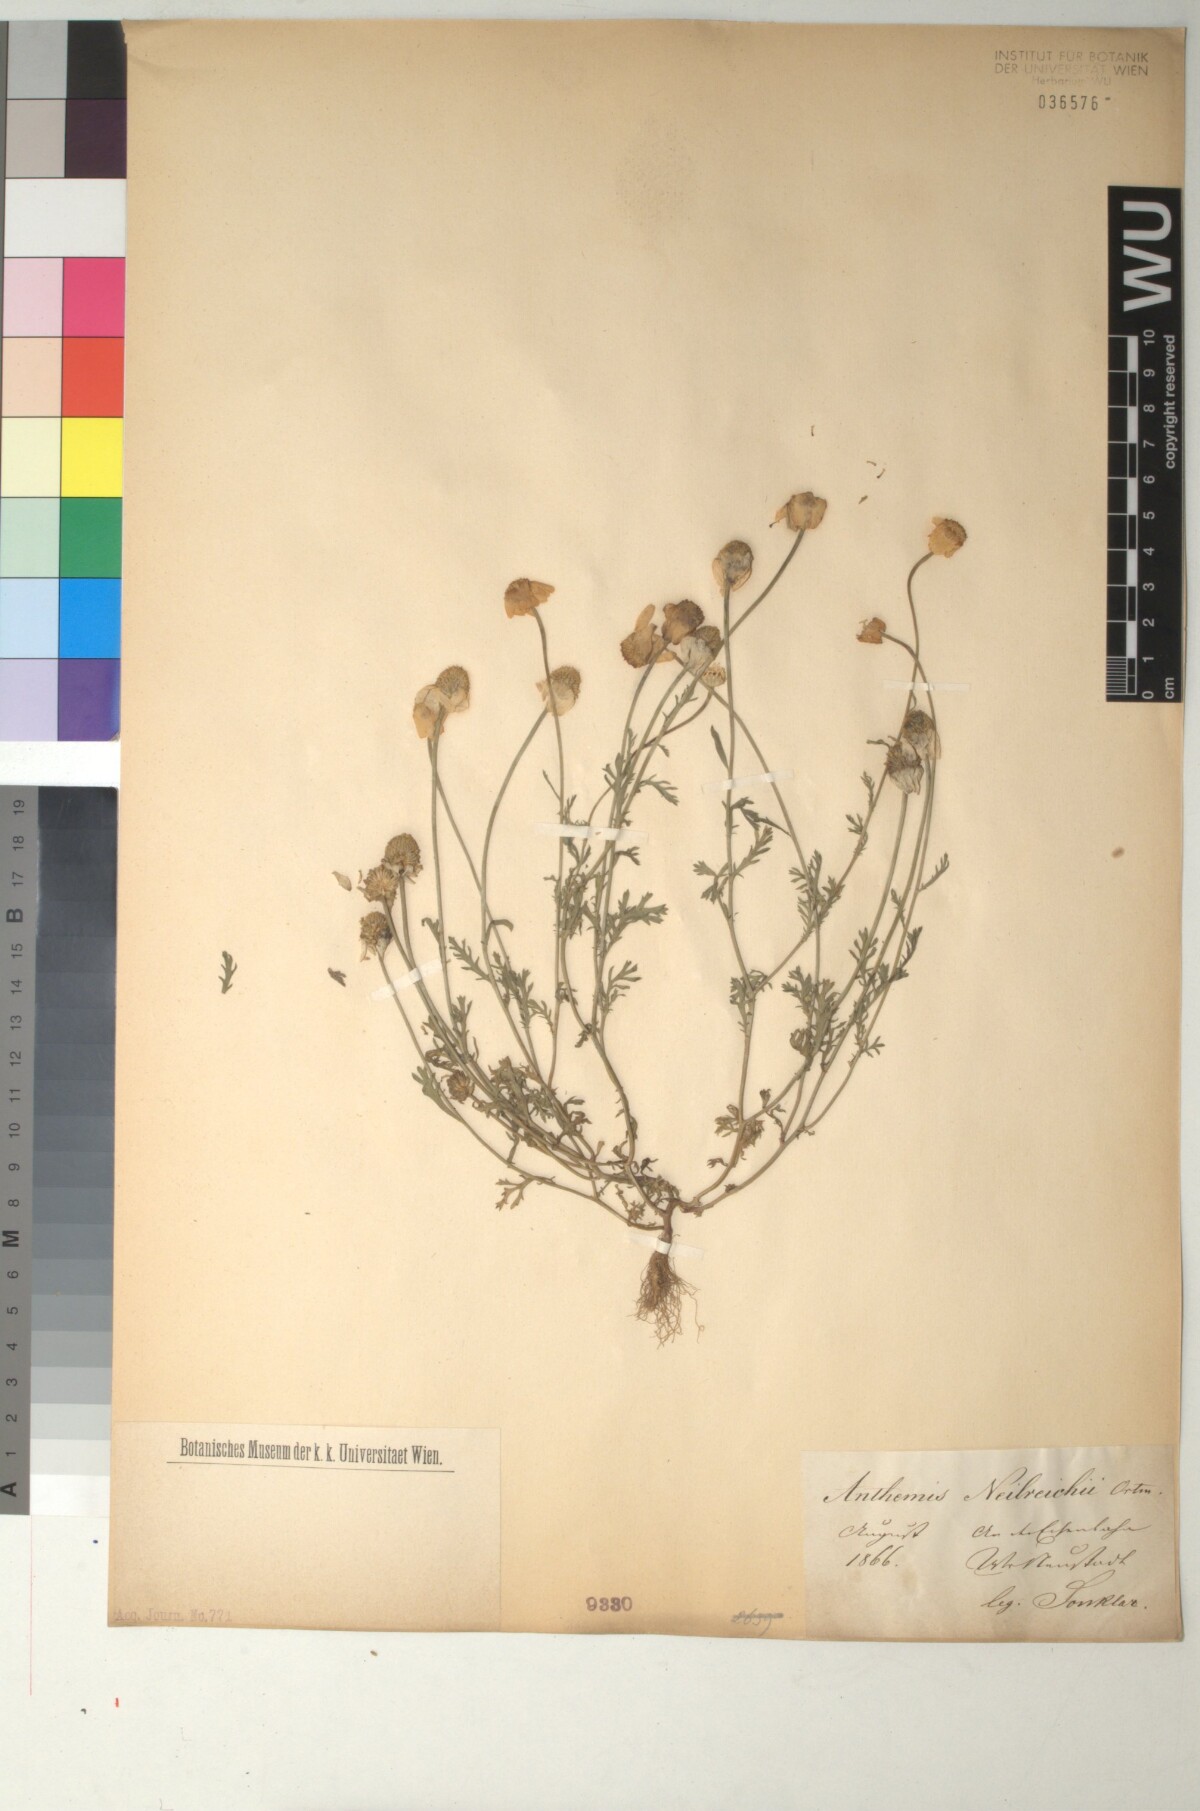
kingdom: Plantae
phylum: Tracheophyta
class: Magnoliopsida
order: Asterales
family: Asteraceae
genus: Anthemis
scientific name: Anthemis ruthenica
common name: Eastern chamomile
